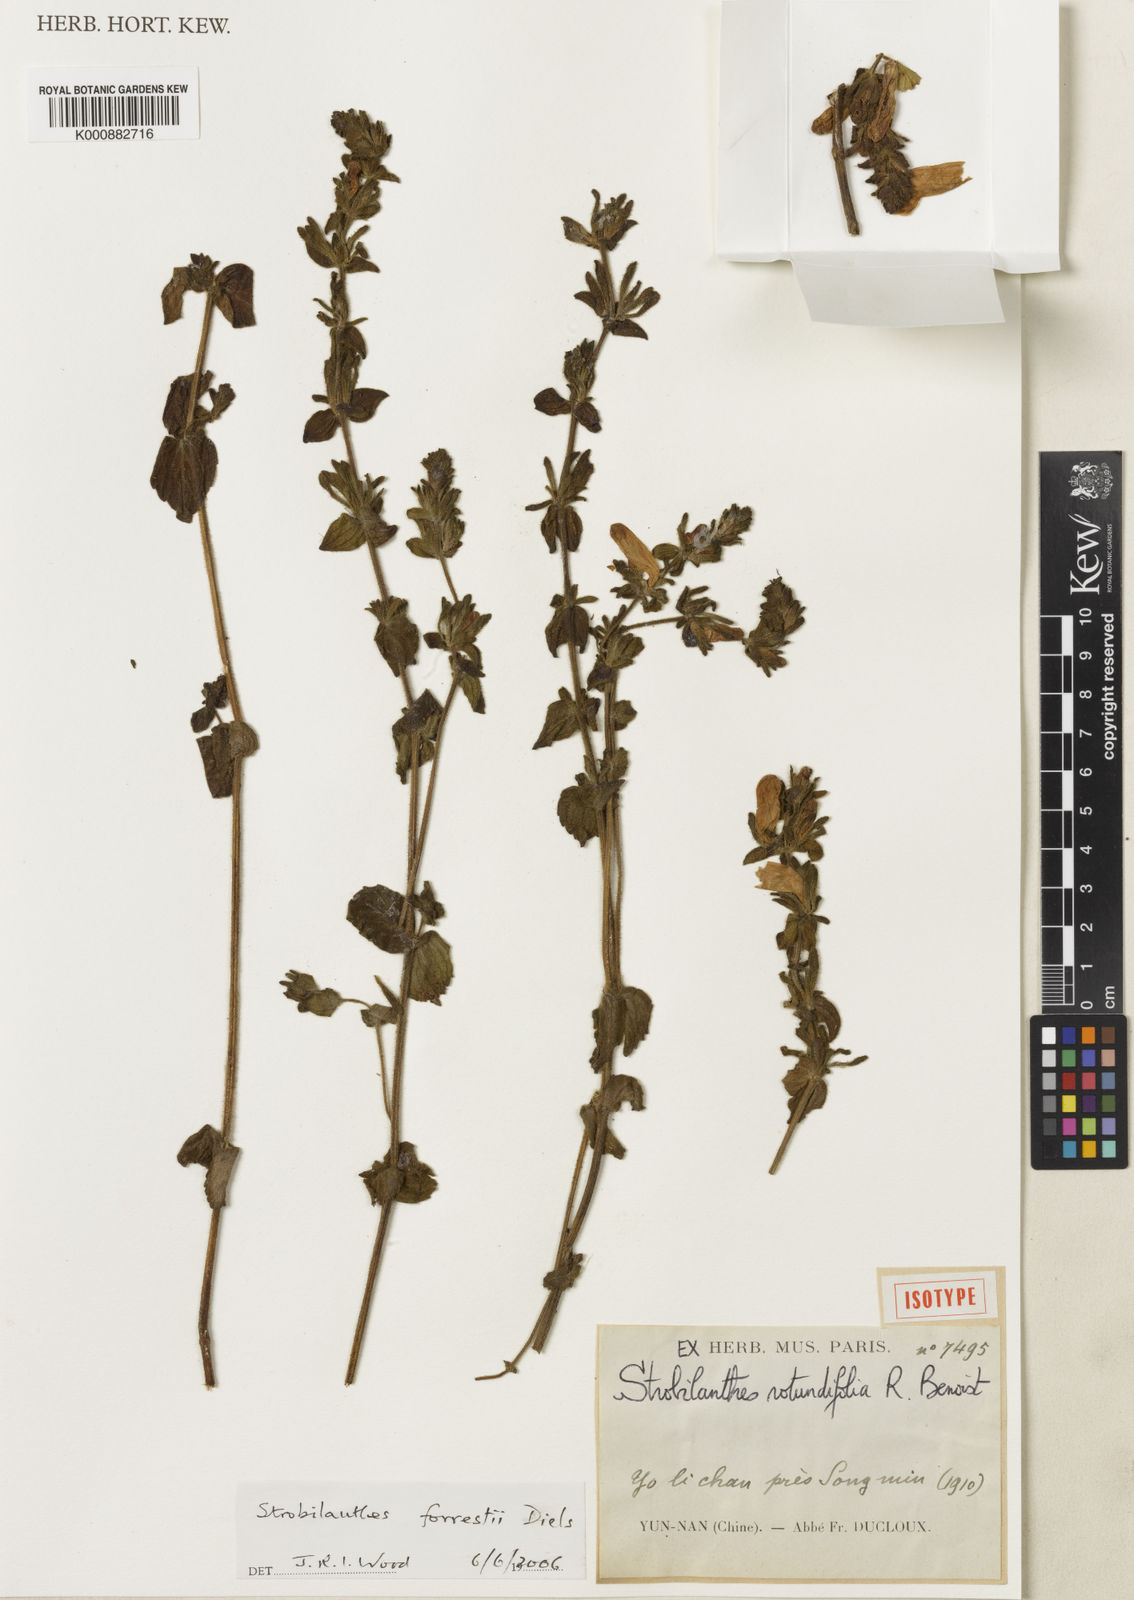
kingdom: Plantae
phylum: Tracheophyta
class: Magnoliopsida
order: Lamiales
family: Acanthaceae
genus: Strobilanthes
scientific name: Strobilanthes forrestii
